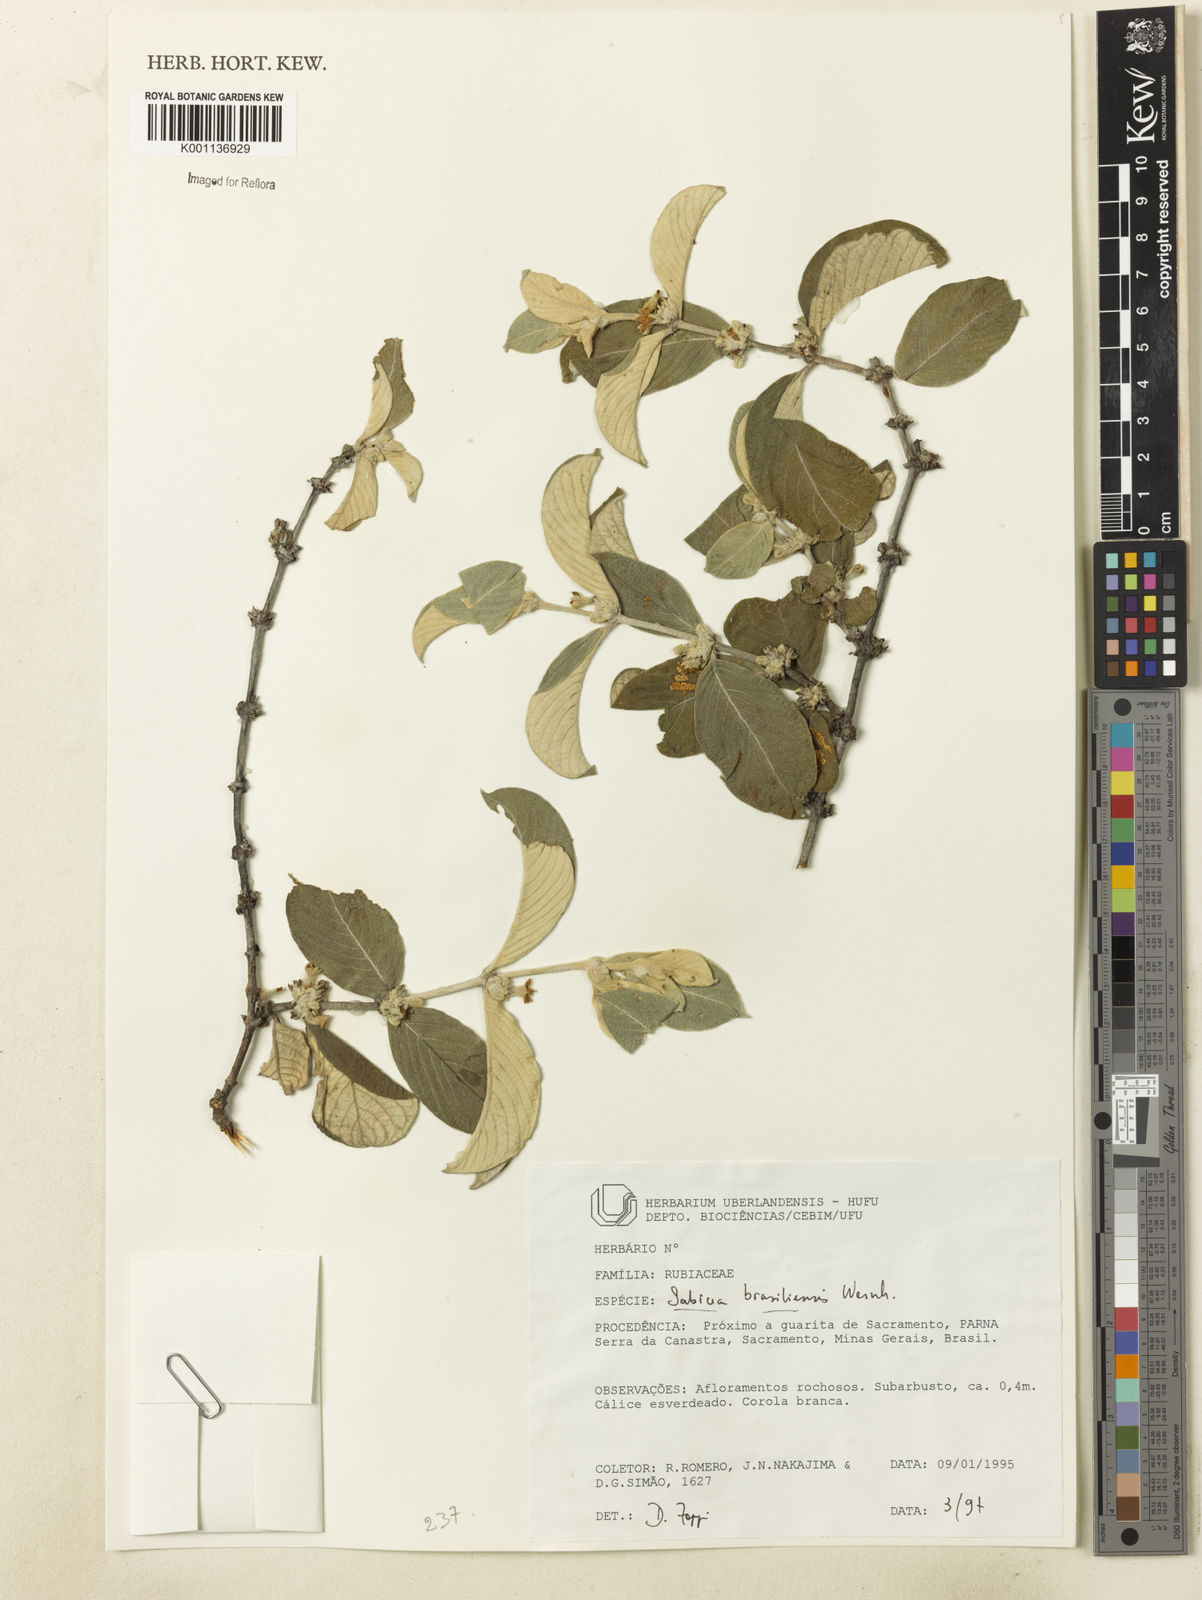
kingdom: Plantae
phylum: Tracheophyta
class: Magnoliopsida
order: Gentianales
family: Rubiaceae
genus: Sabicea
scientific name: Sabicea brasiliensis
